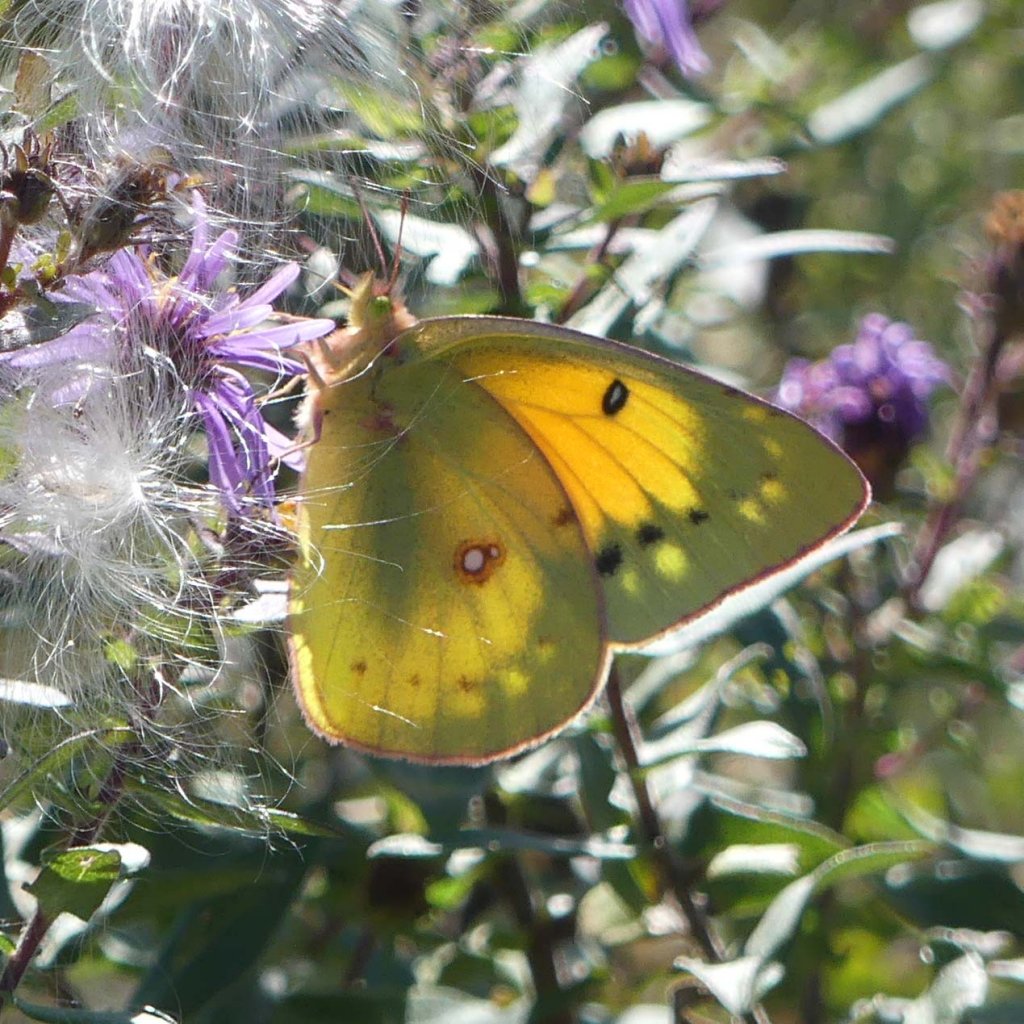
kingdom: Animalia
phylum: Arthropoda
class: Insecta
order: Lepidoptera
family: Pieridae
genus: Colias
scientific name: Colias eurytheme
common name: Orange Sulphur
